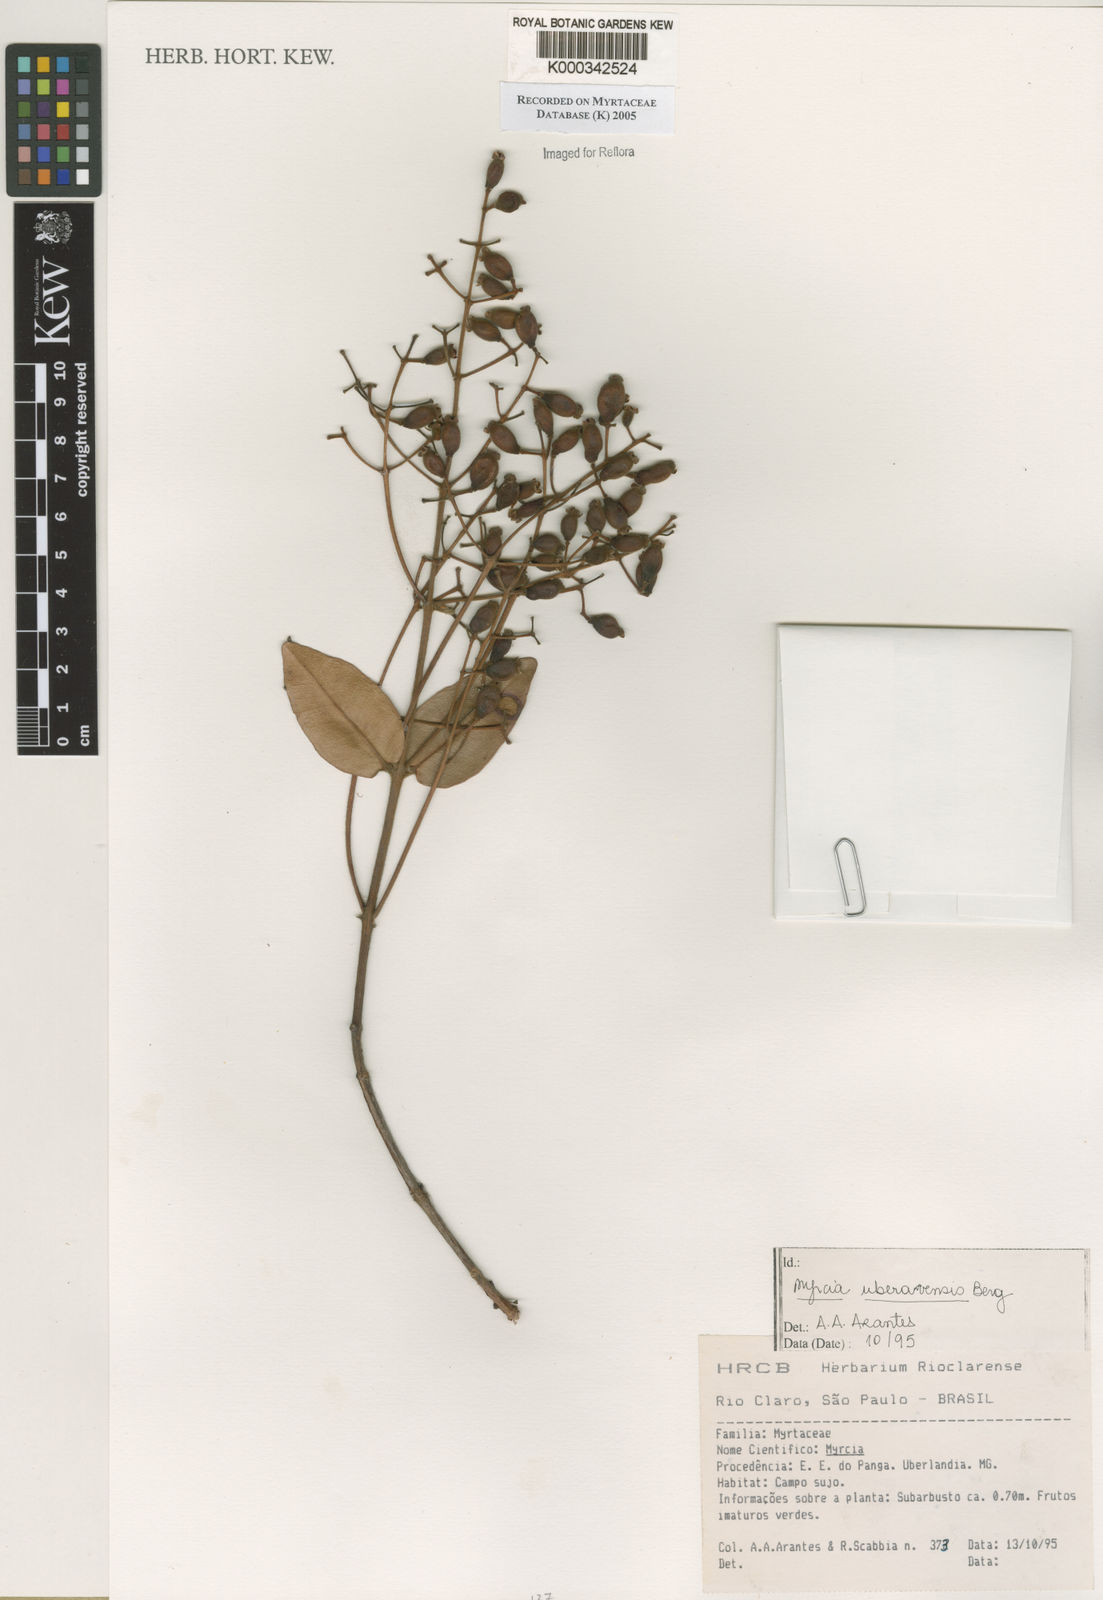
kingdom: Plantae
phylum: Tracheophyta
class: Magnoliopsida
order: Myrtales
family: Myrtaceae
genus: Myrcia
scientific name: Myrcia uberavensis
